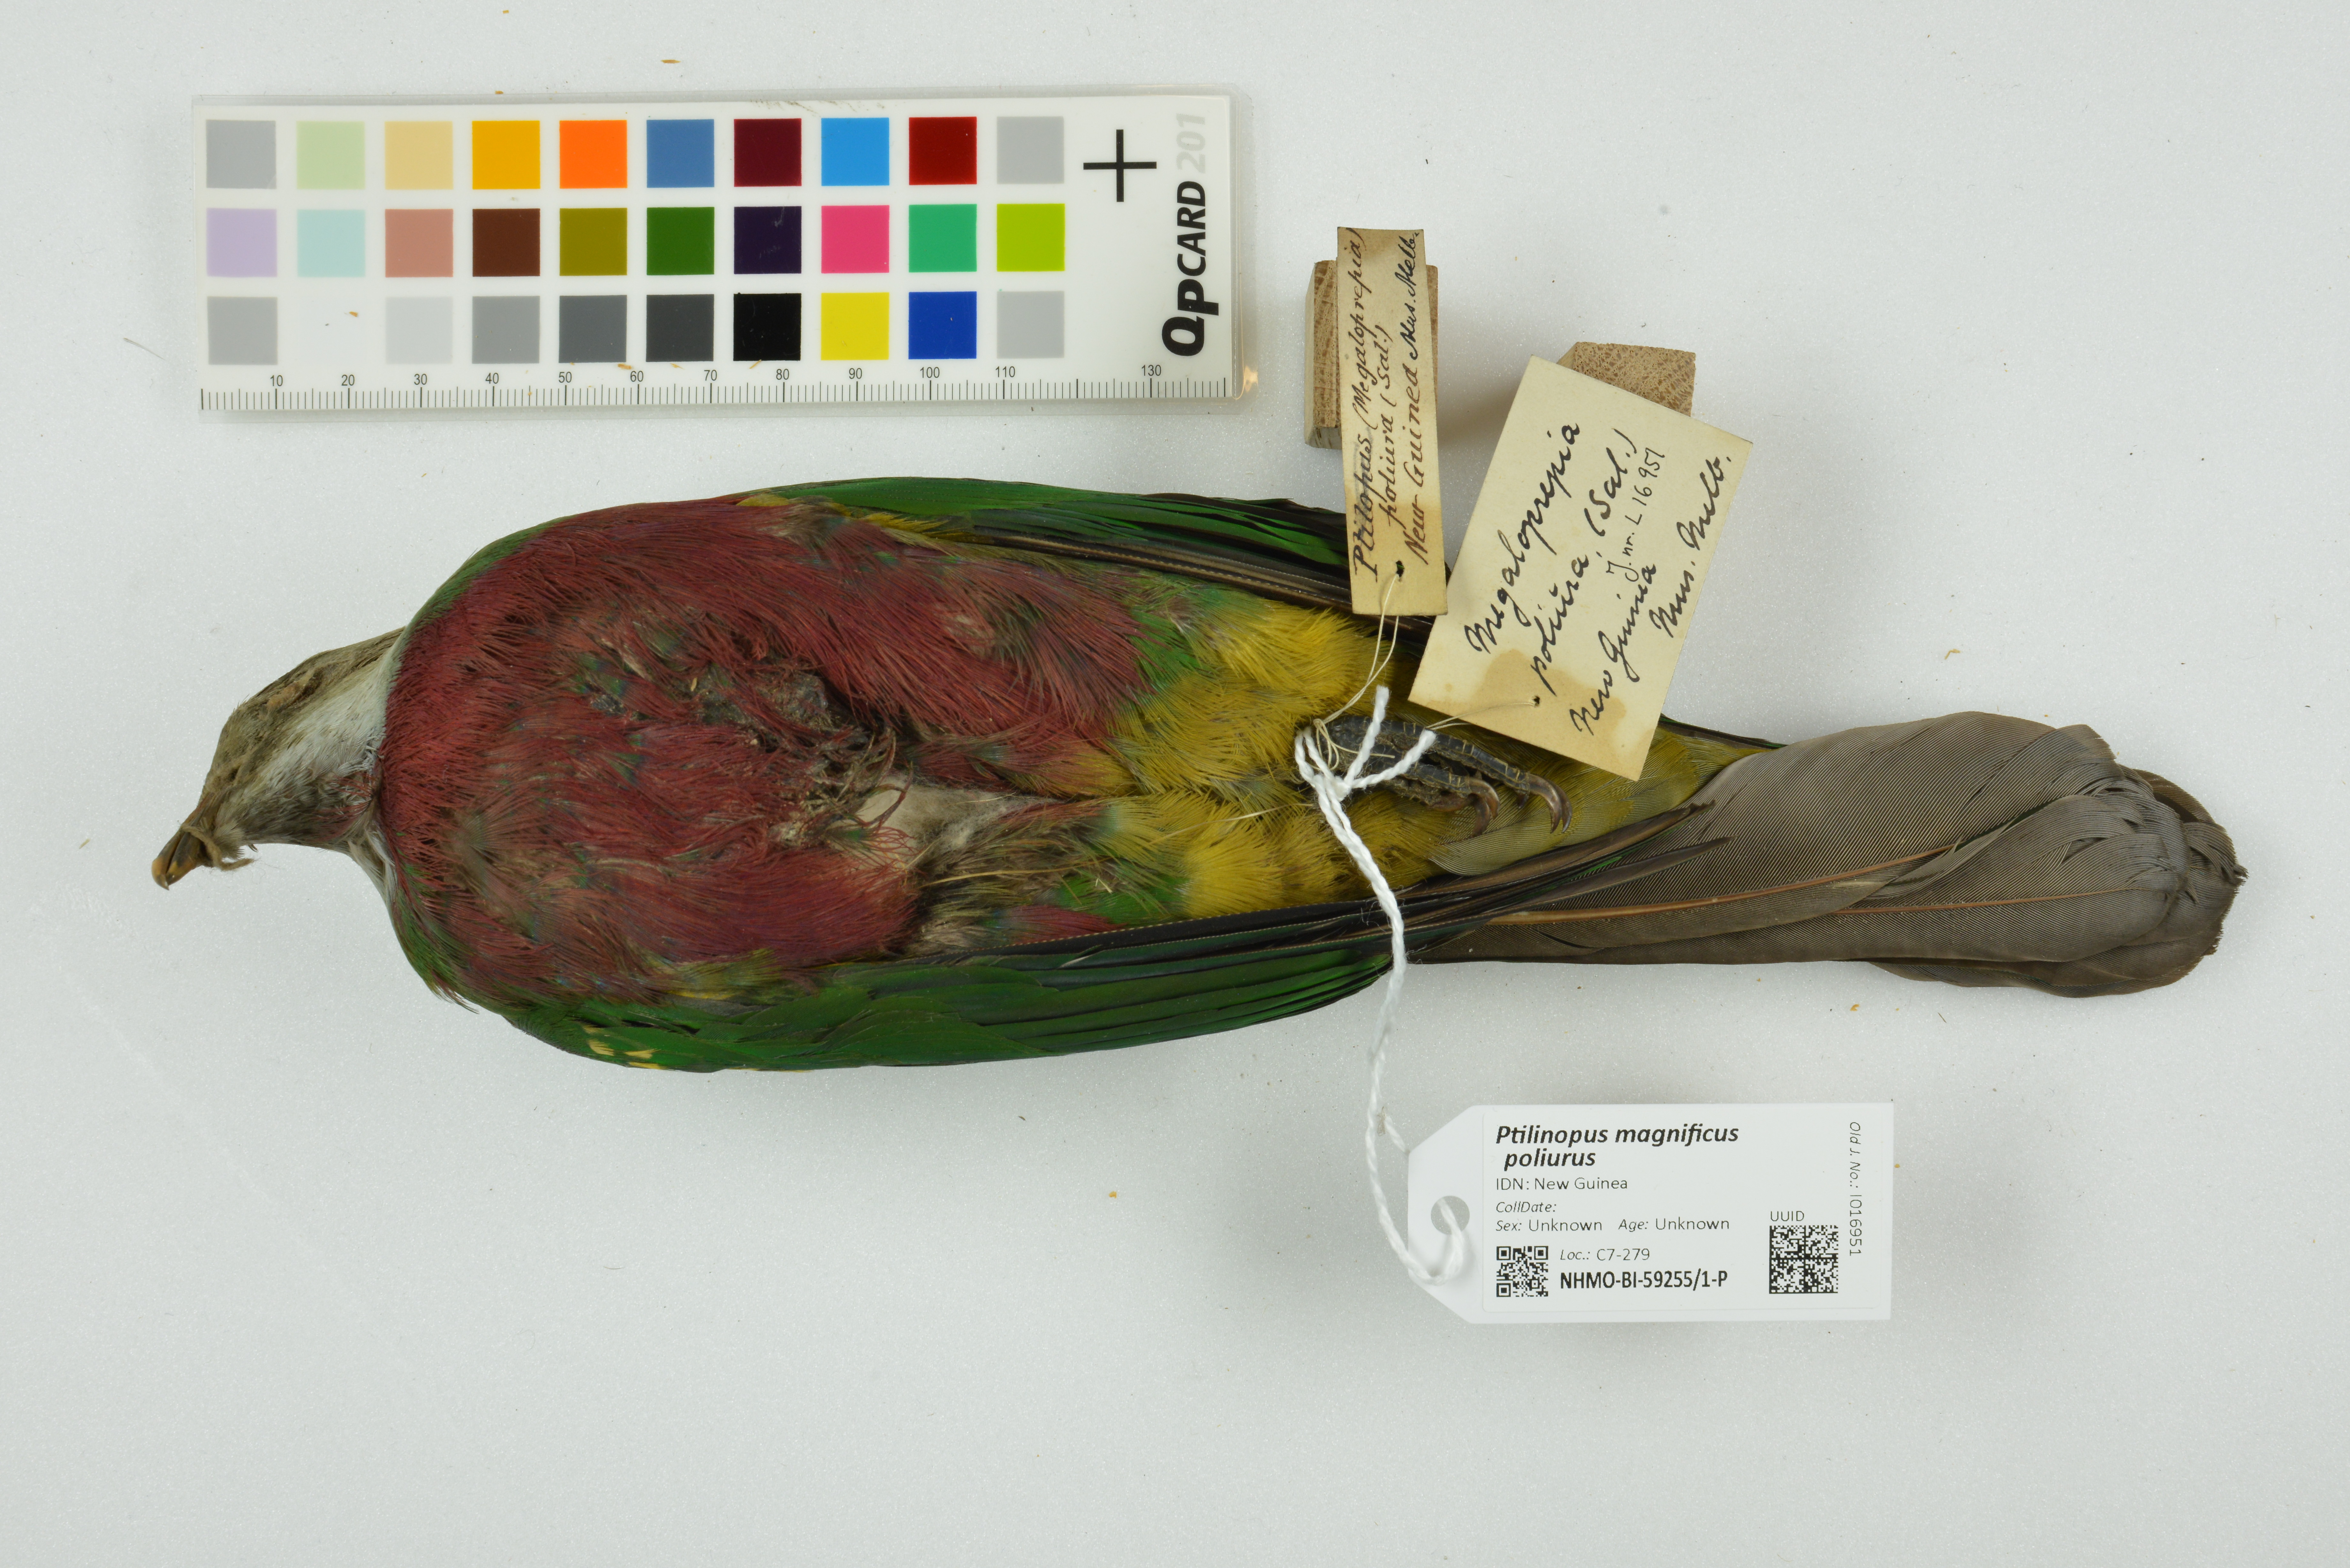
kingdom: Animalia
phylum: Chordata
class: Aves
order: Columbiformes
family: Columbidae
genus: Ptilinopus
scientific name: Ptilinopus magnificus
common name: Wompoo fruit dove
